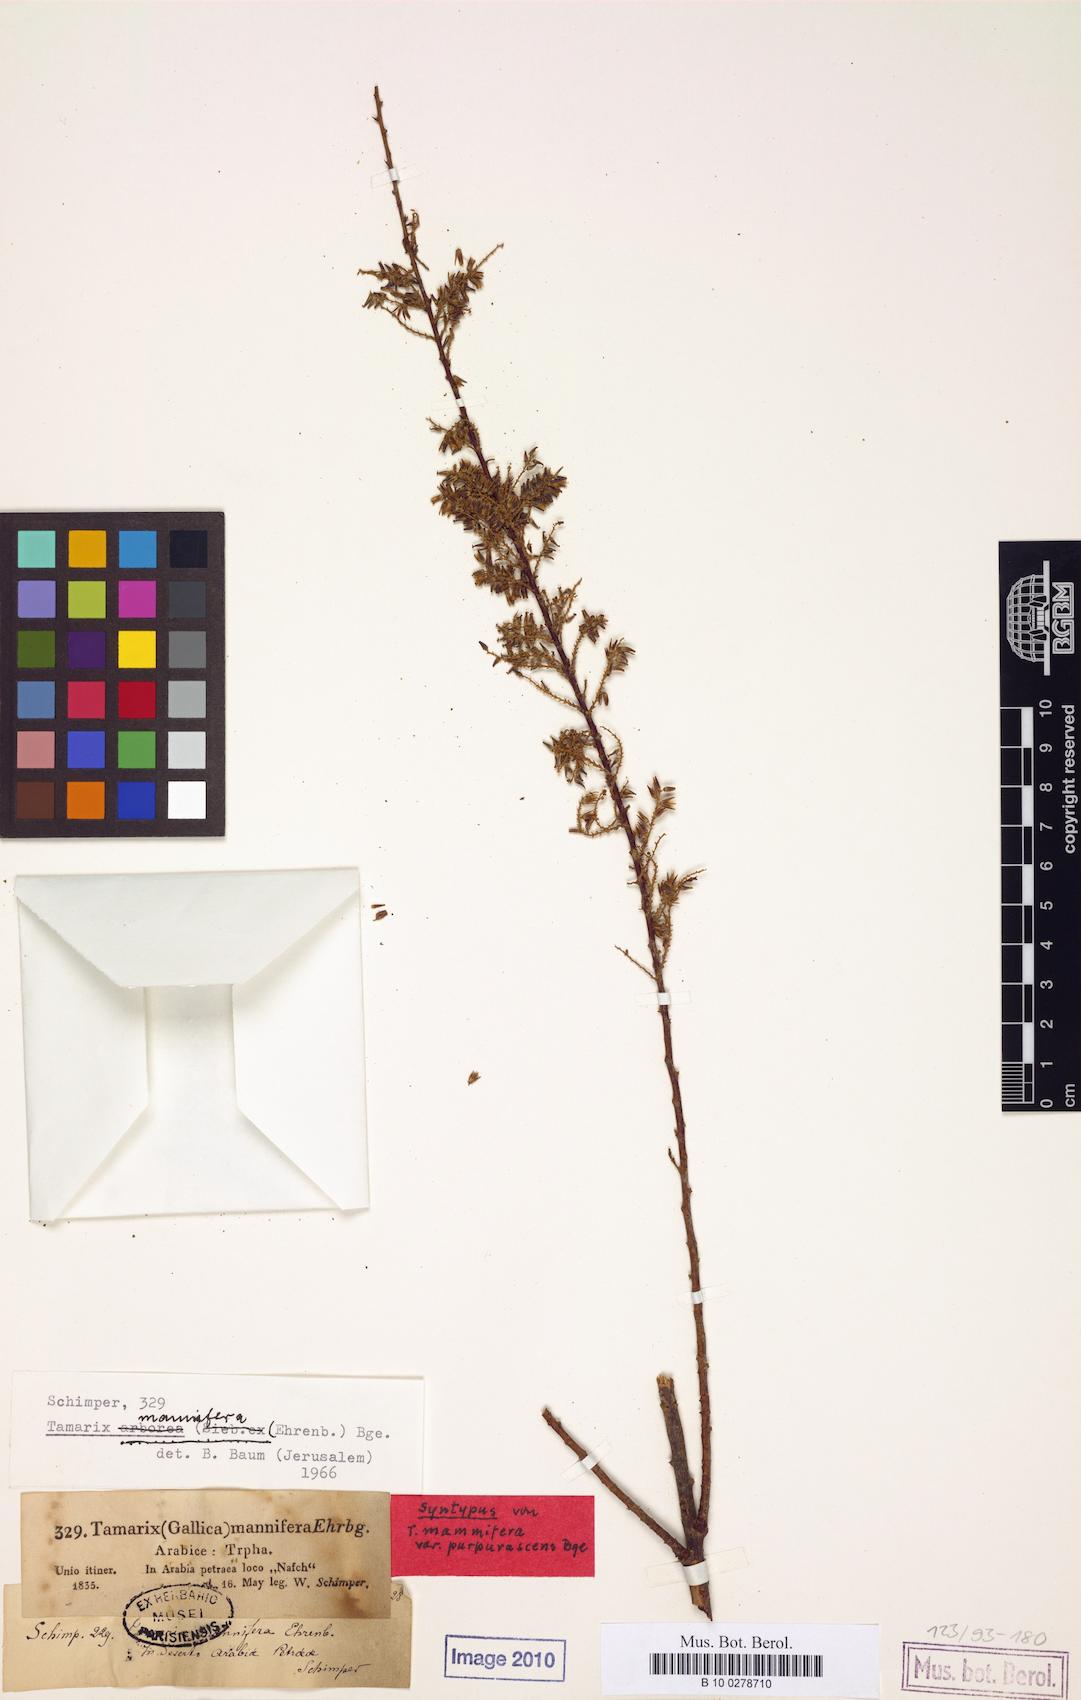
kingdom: Plantae
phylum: Tracheophyta
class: Magnoliopsida
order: Caryophyllales
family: Tamaricaceae
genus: Tamarix
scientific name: Tamarix senegalensis
